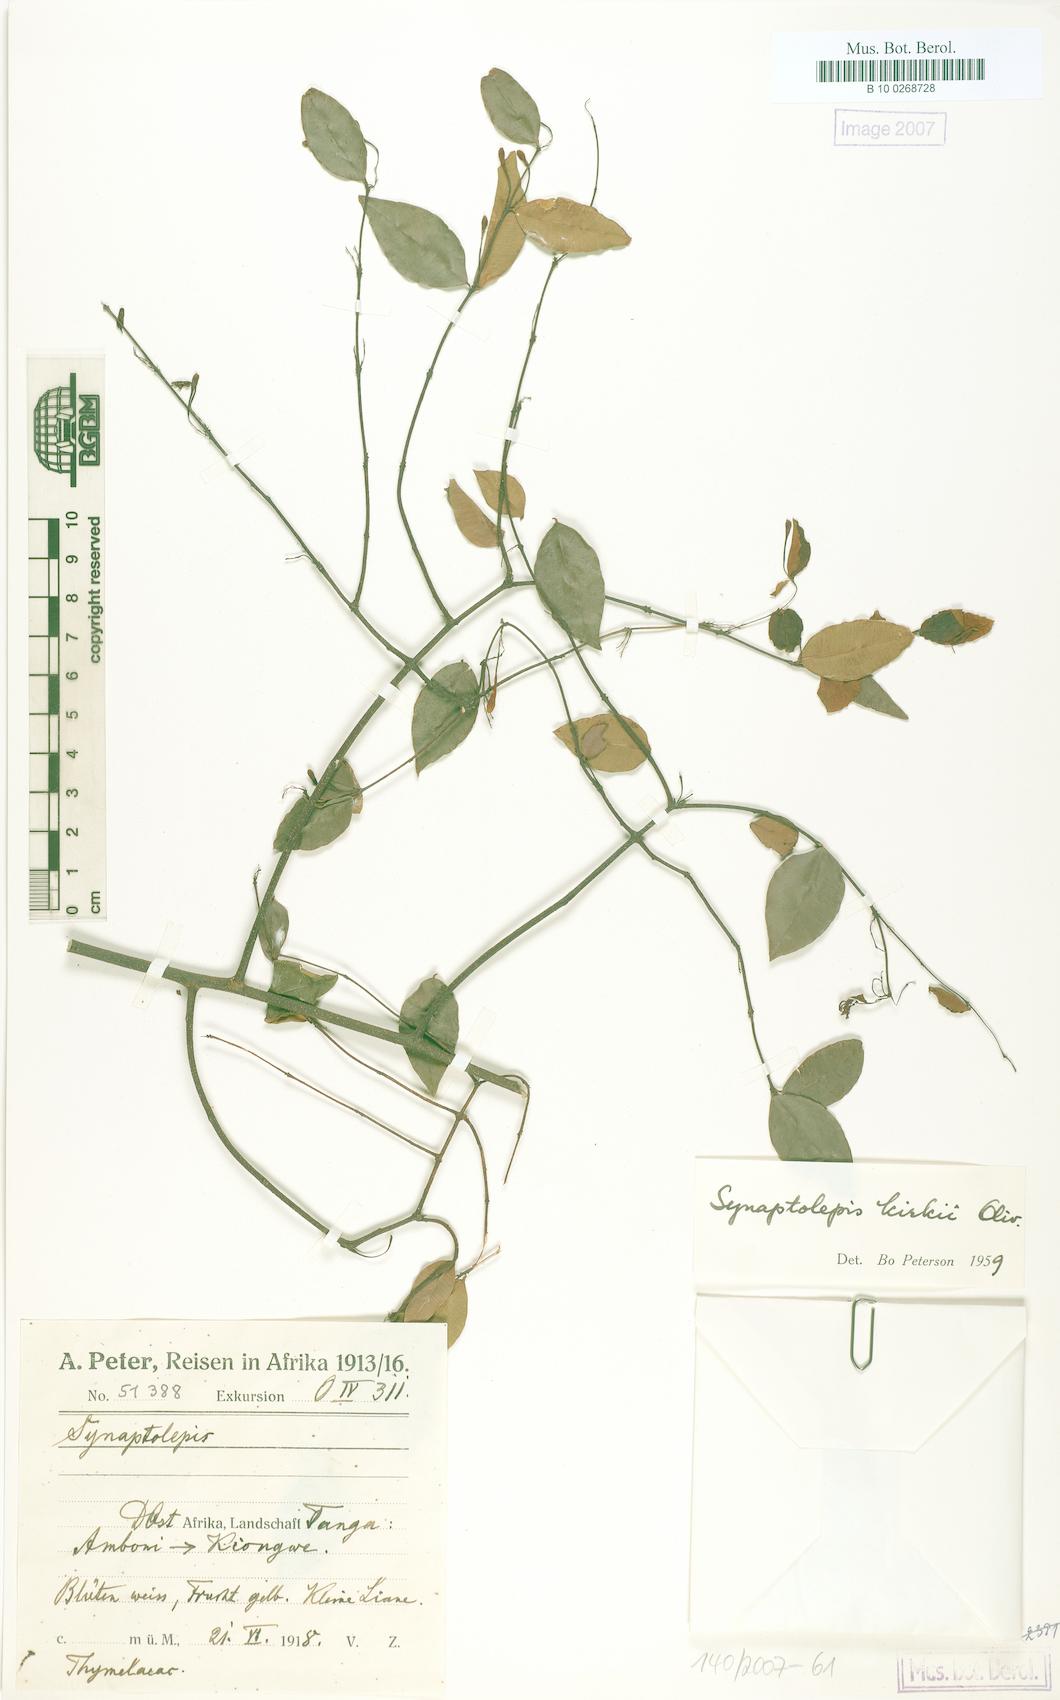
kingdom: Plantae
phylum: Tracheophyta
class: Magnoliopsida
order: Malvales
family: Thymelaeaceae
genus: Synaptolepis
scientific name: Synaptolepis kirkii
